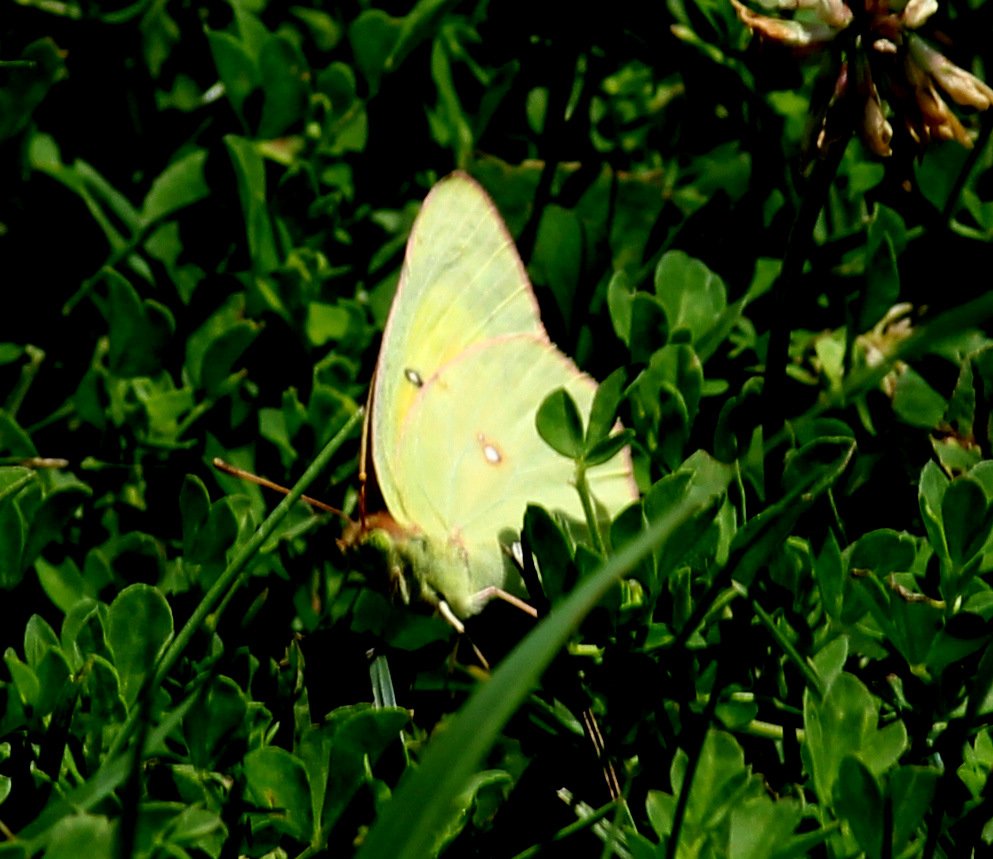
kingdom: Animalia
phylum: Arthropoda
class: Insecta
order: Lepidoptera
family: Pieridae
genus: Colias
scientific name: Colias eurytheme
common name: Orange Sulphur
